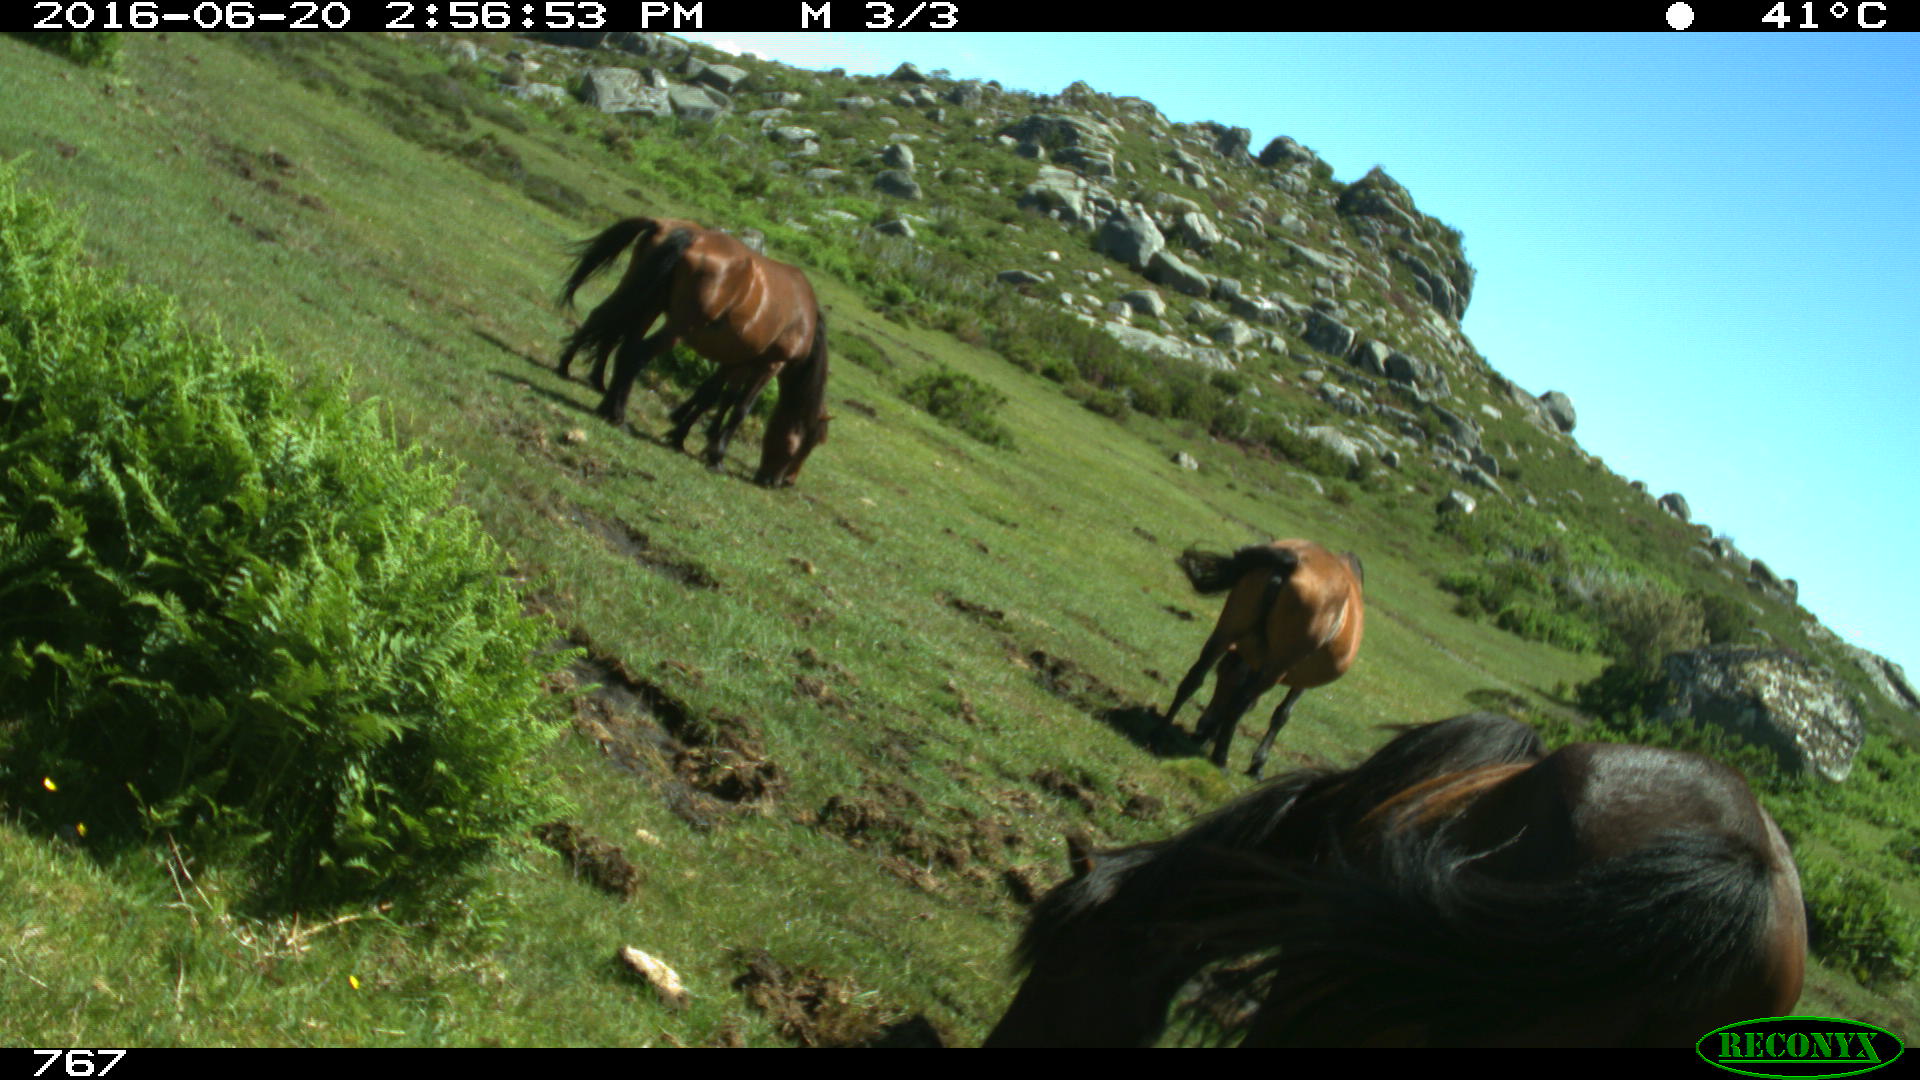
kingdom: Animalia
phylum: Chordata
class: Mammalia
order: Perissodactyla
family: Equidae
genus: Equus
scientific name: Equus caballus
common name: Horse
